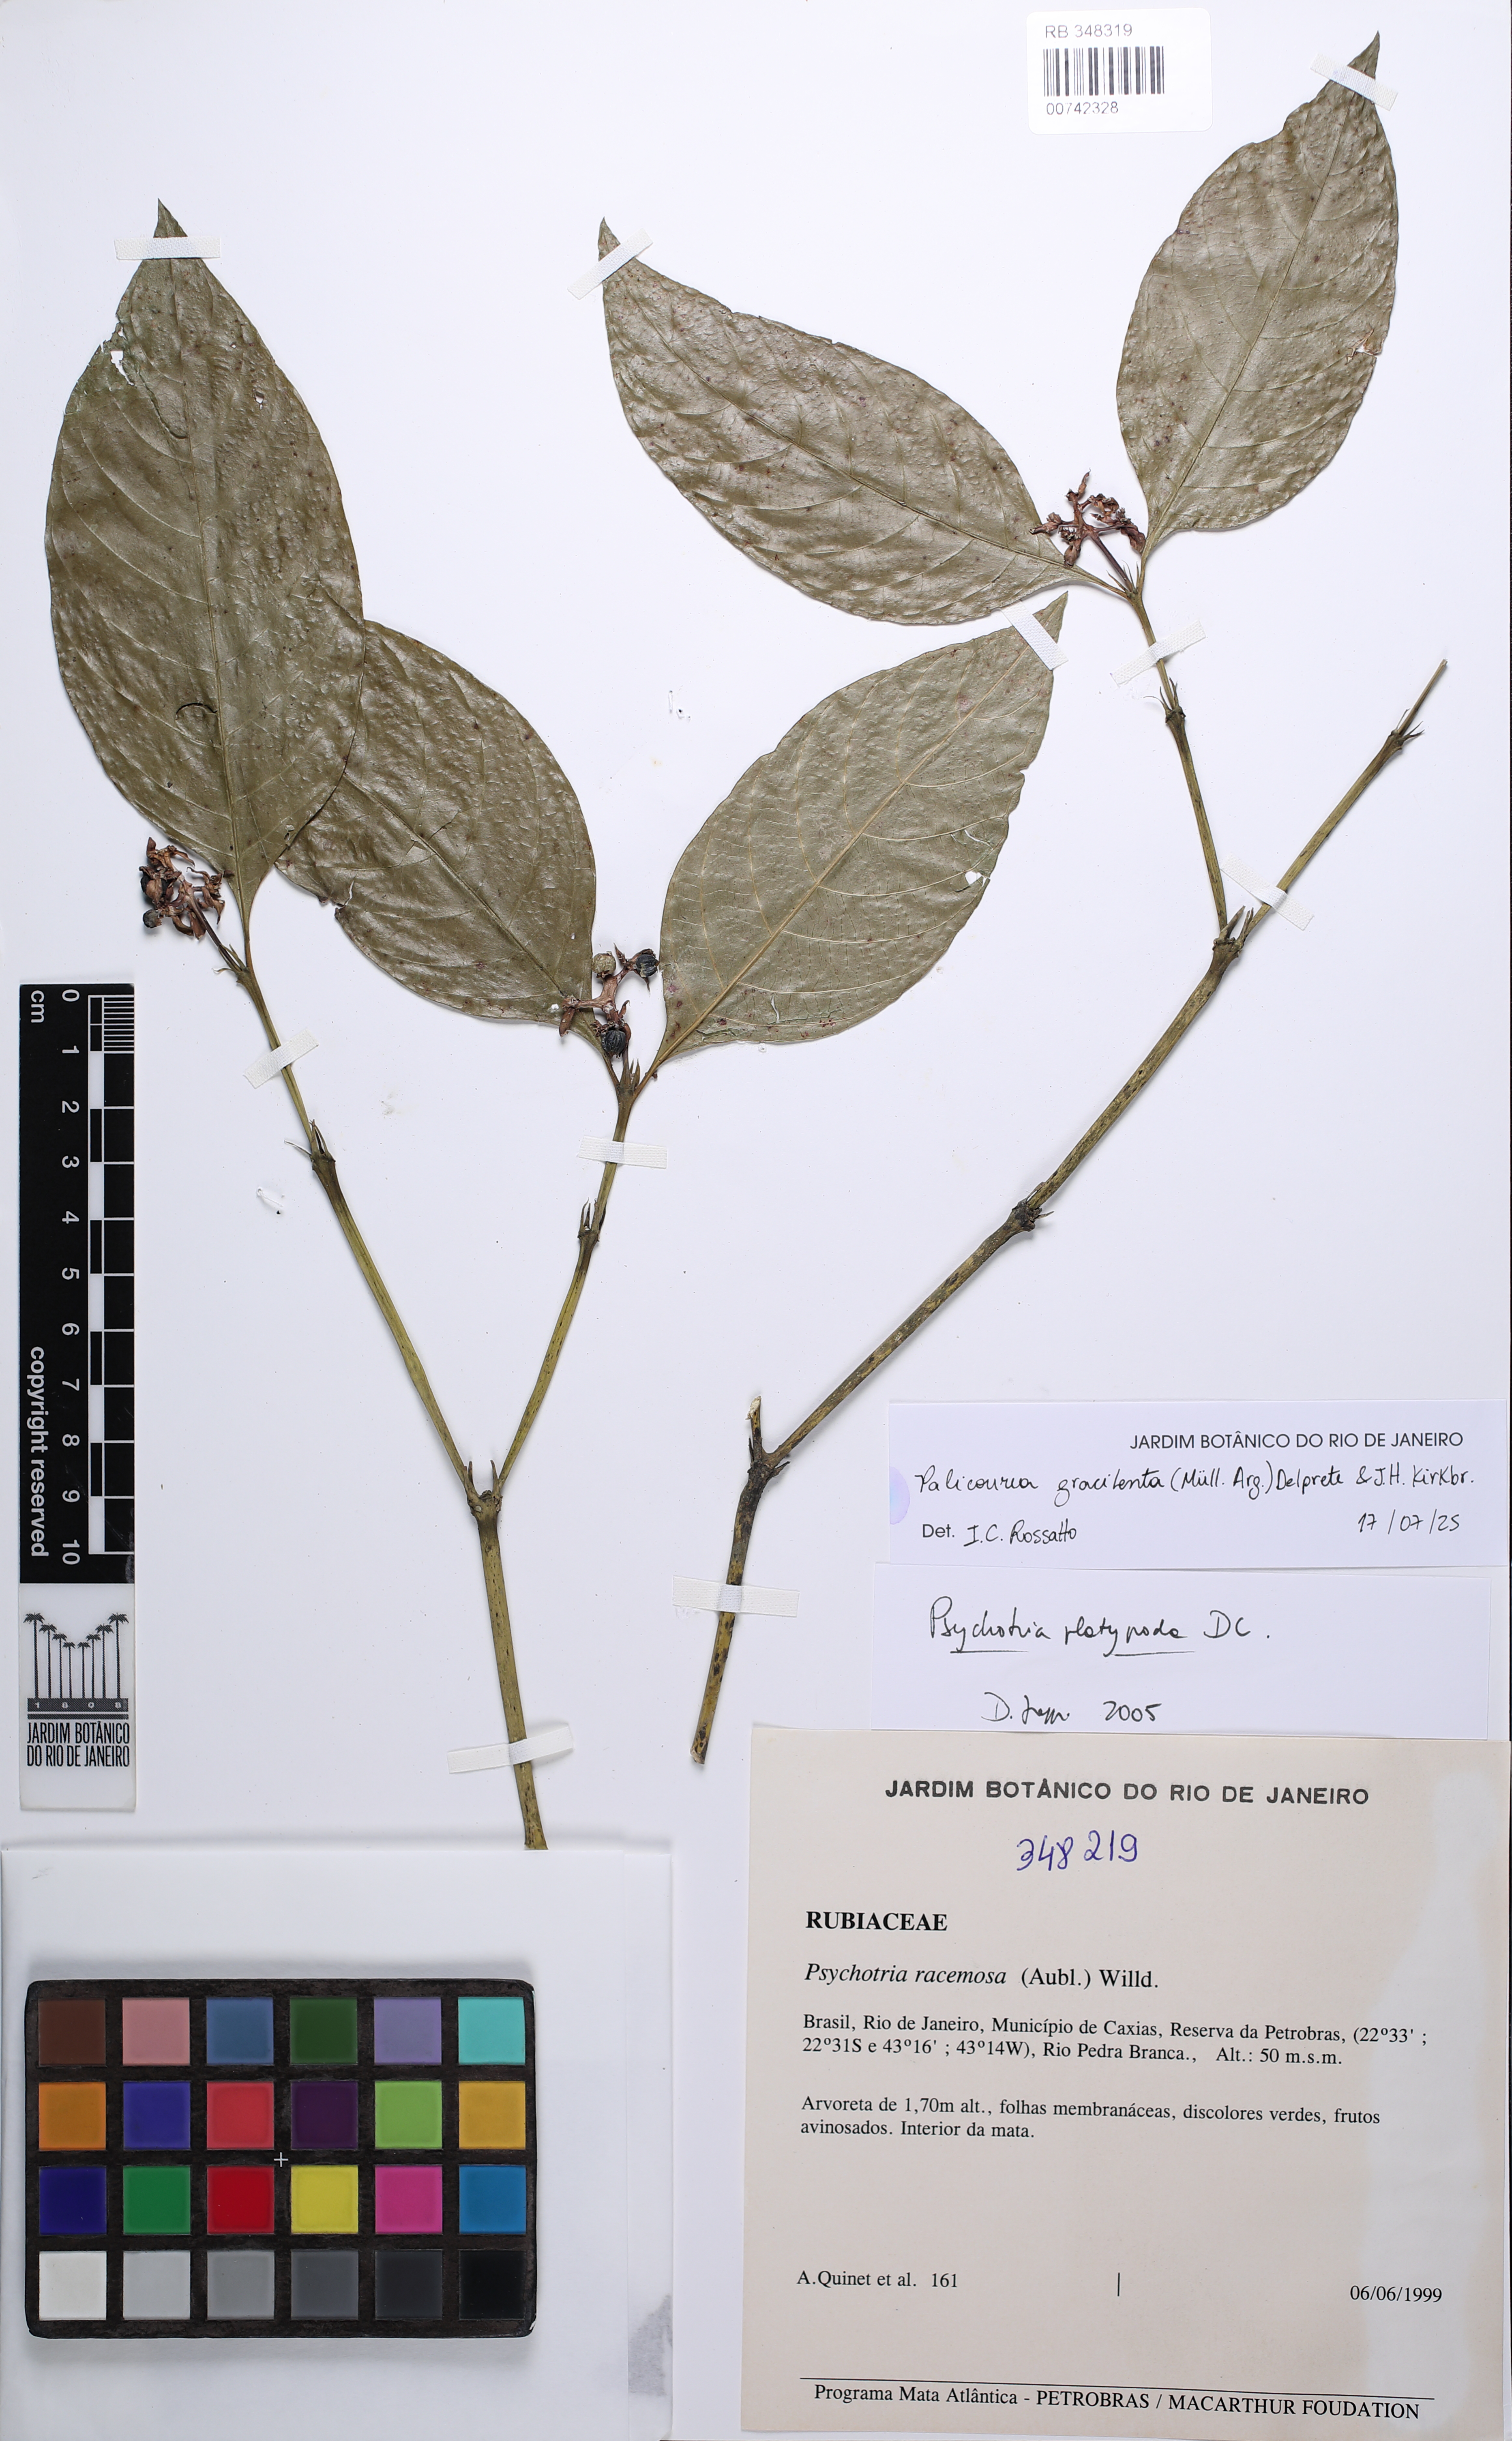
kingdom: Plantae
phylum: Tracheophyta
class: Magnoliopsida
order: Gentianales
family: Rubiaceae
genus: Psychotria
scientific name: Psychotria nemorosa
